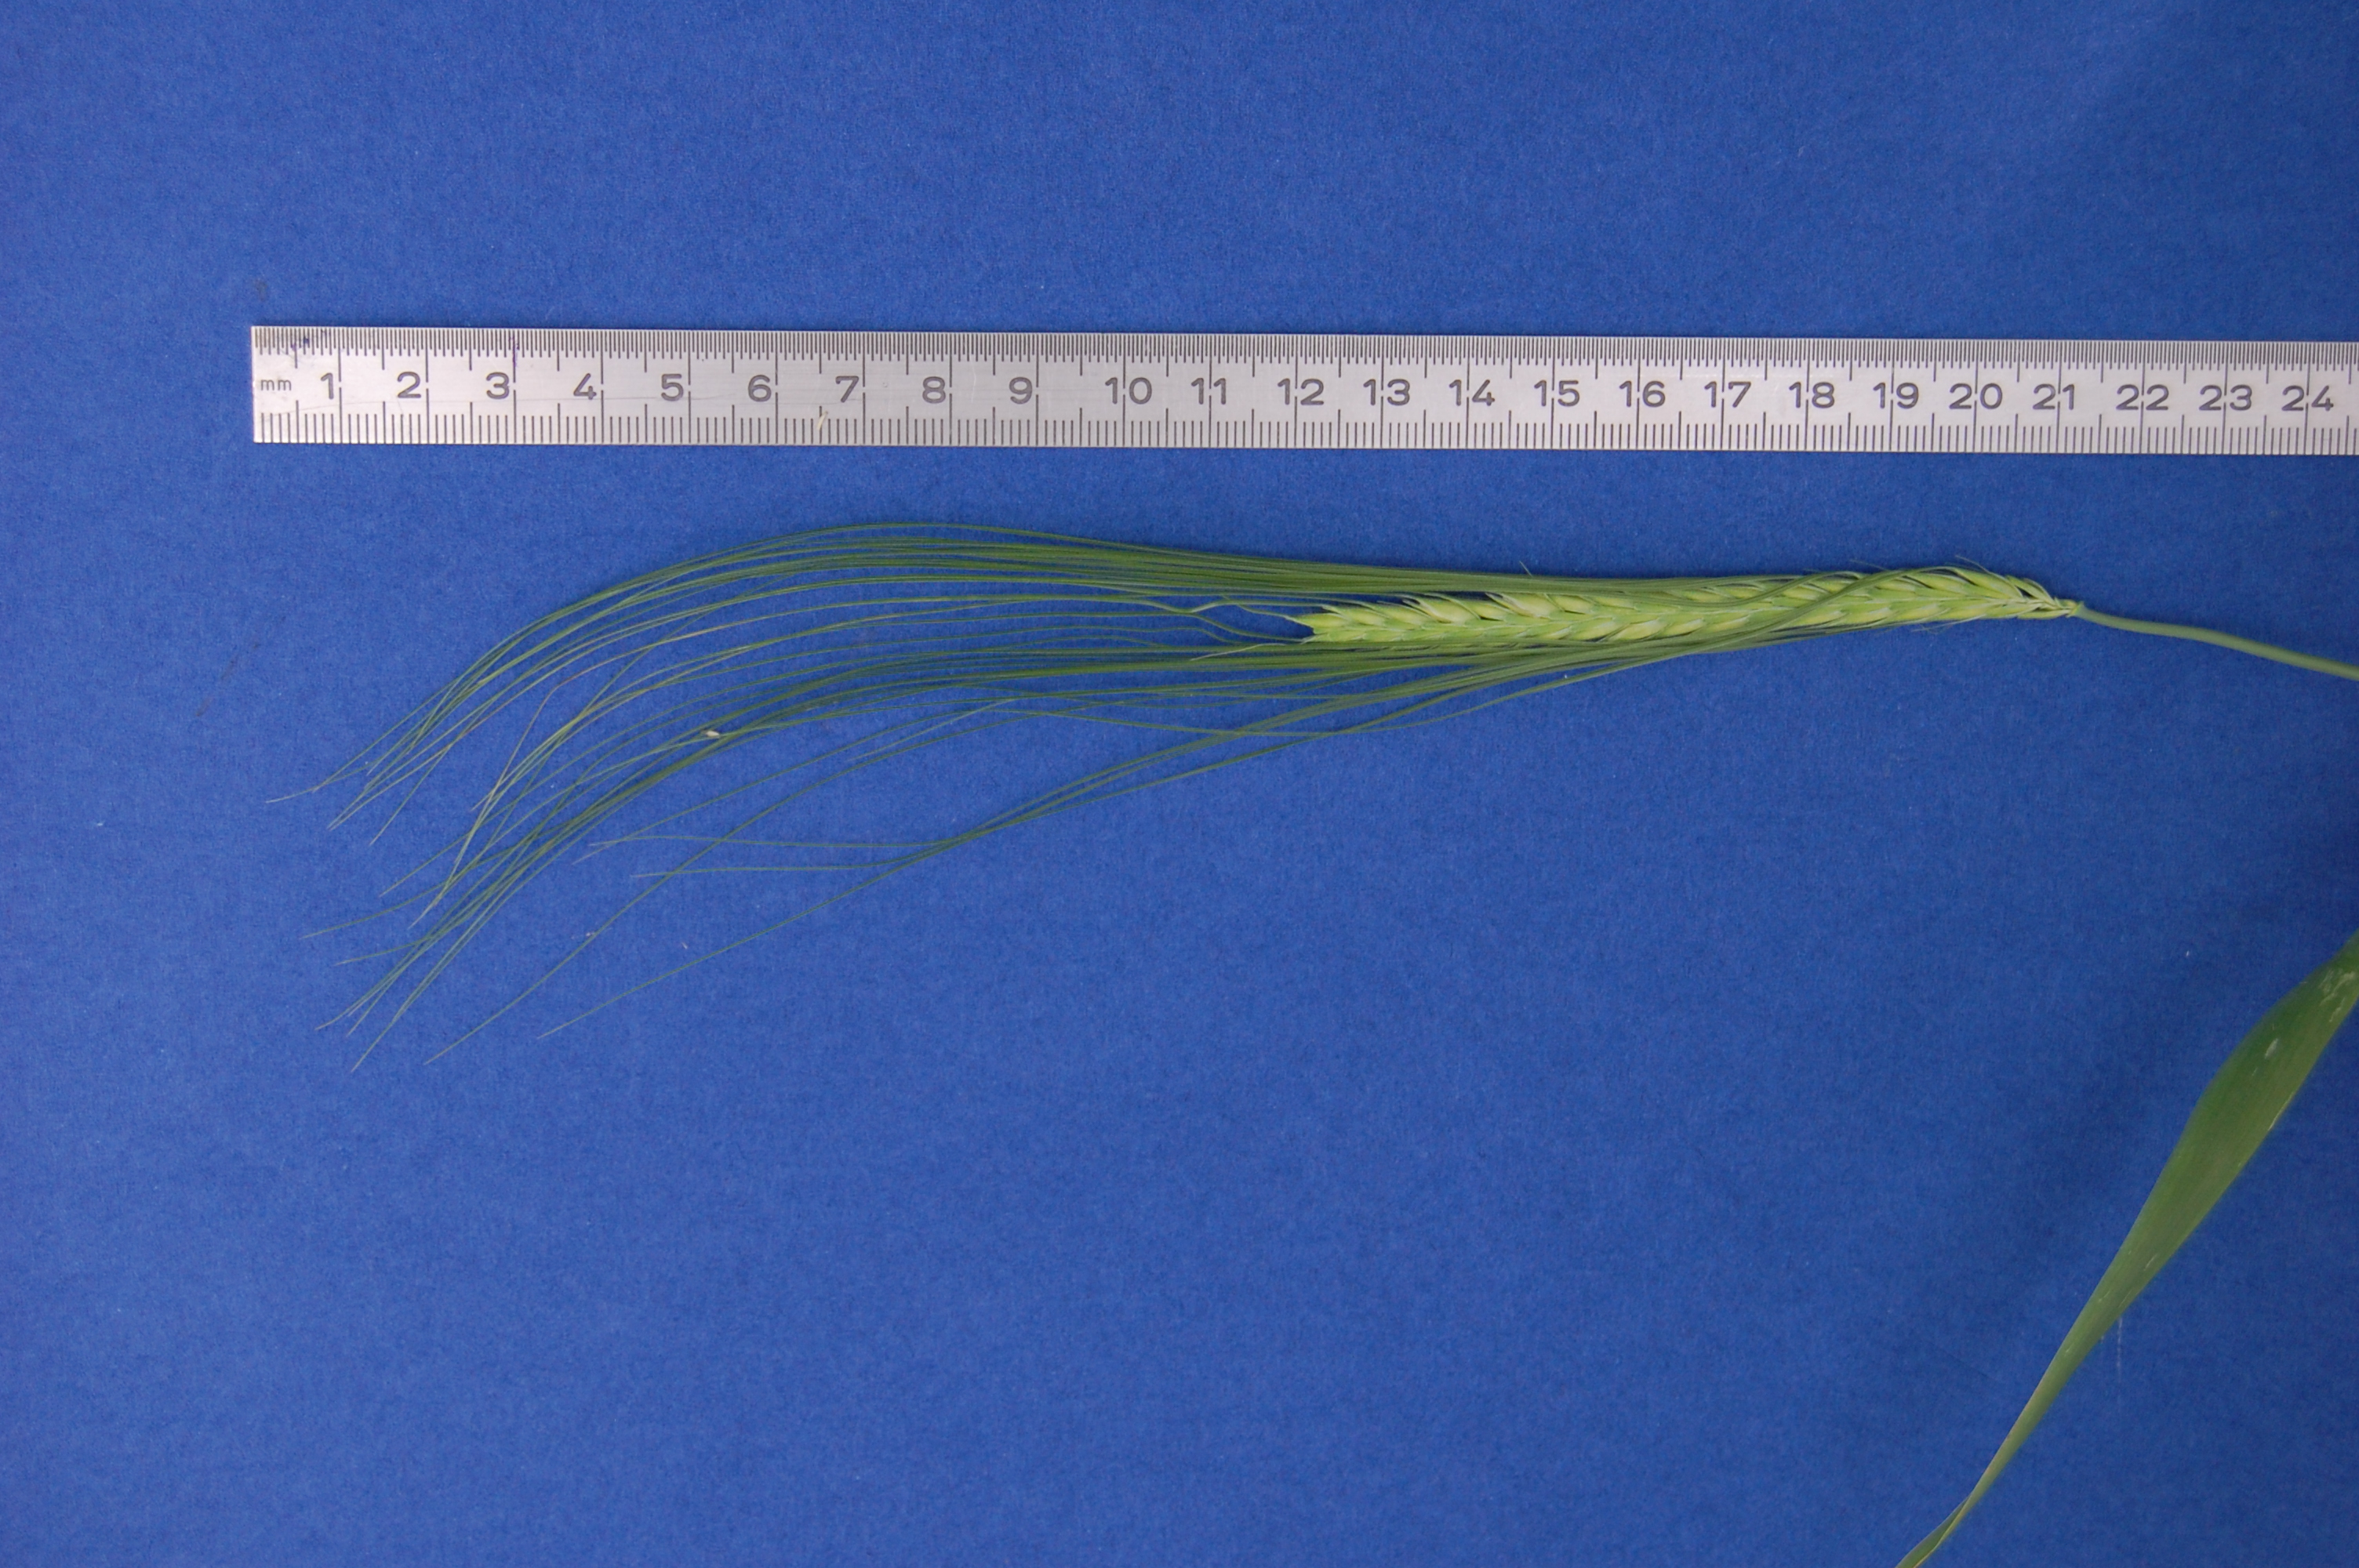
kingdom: Plantae
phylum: Tracheophyta
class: Liliopsida
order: Poales
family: Poaceae
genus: Hordeum
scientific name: Hordeum vulgare
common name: Common barley
